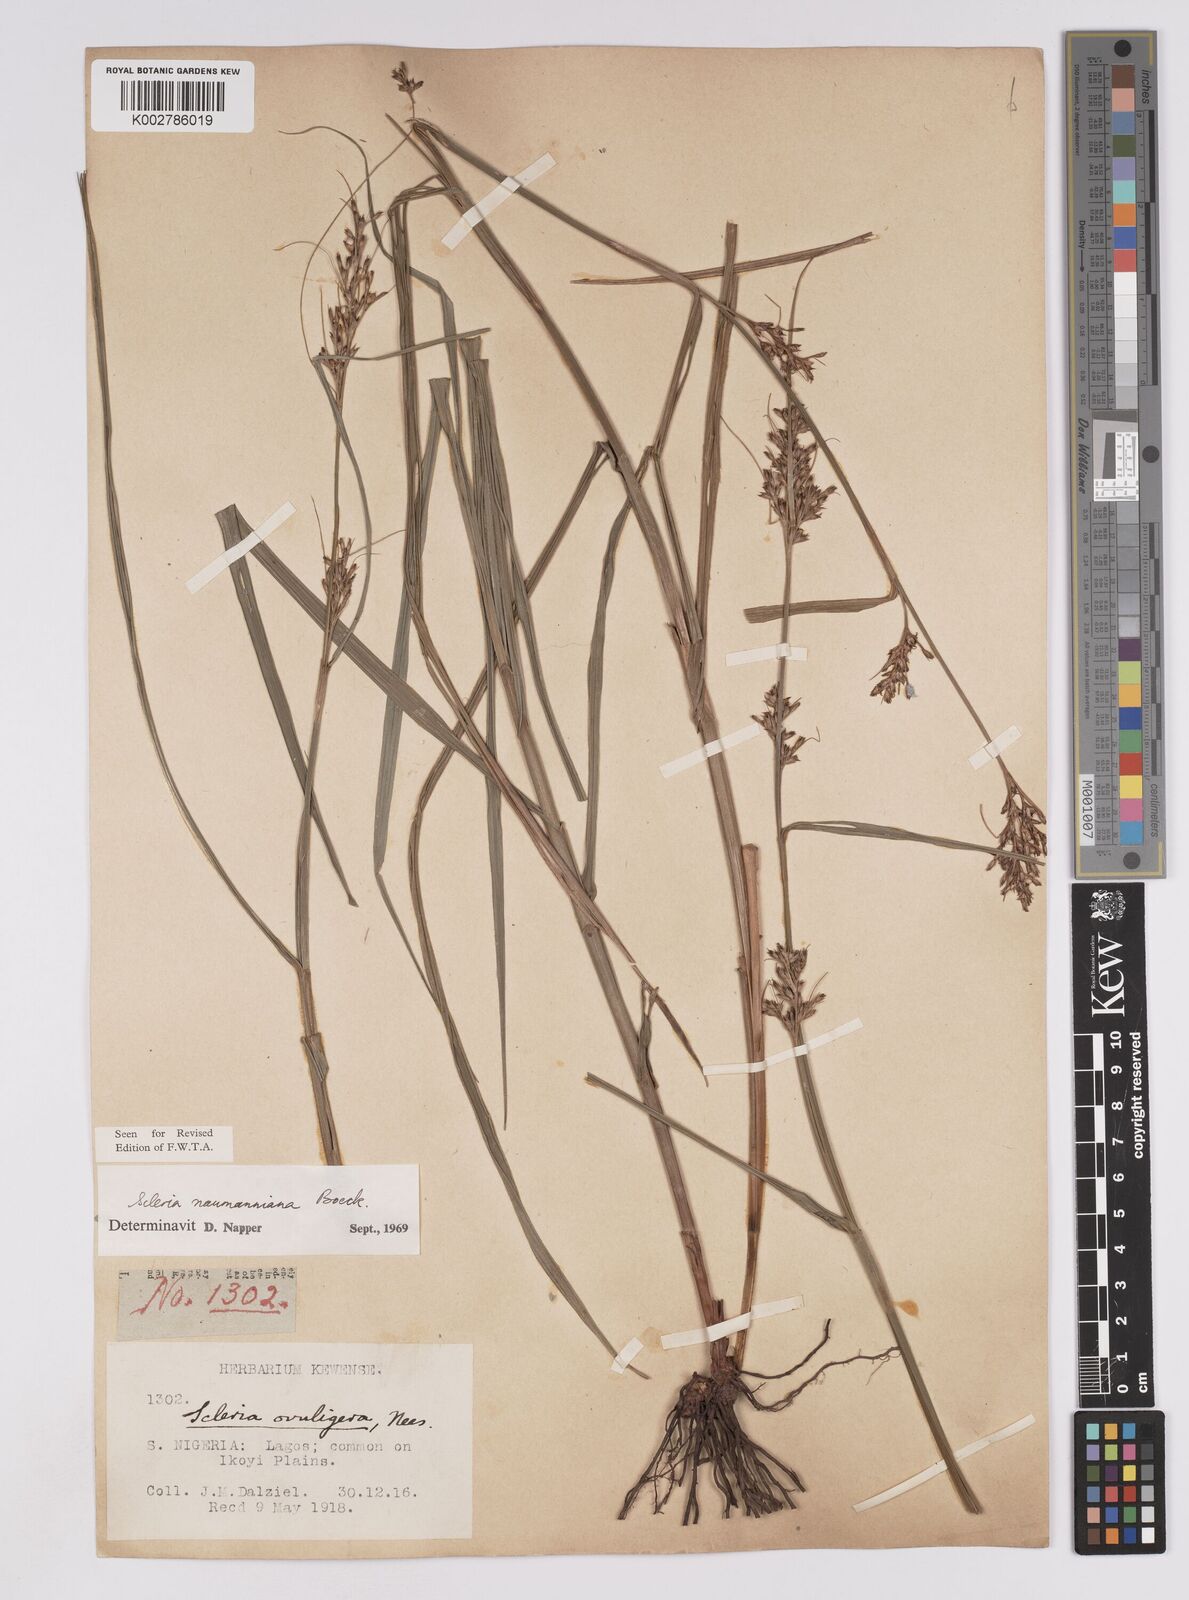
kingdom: Plantae
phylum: Tracheophyta
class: Liliopsida
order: Poales
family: Cyperaceae
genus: Scleria
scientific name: Scleria naumanniana
